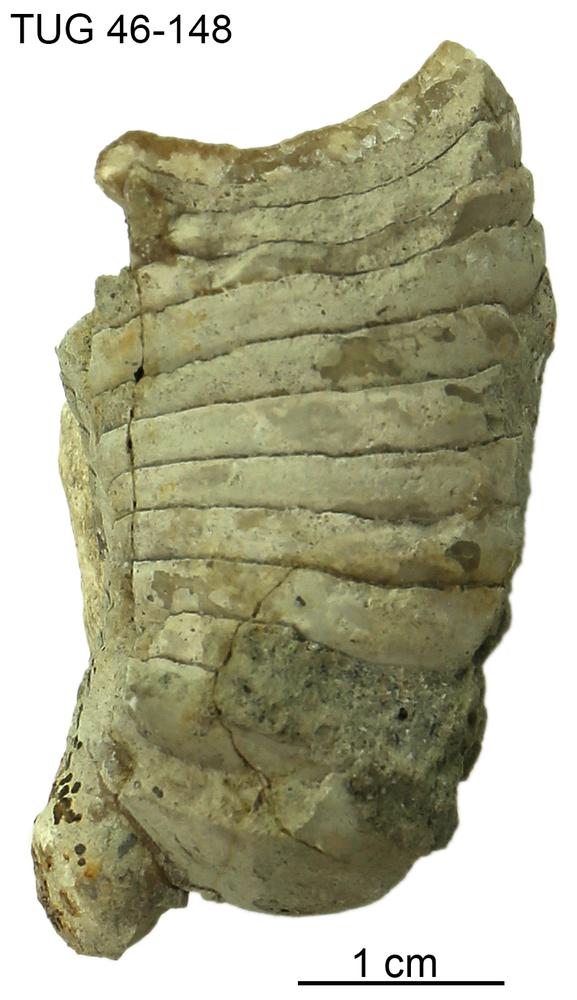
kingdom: Animalia
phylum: Mollusca
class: Cephalopoda
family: Discosoridae
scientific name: Discosoridae
